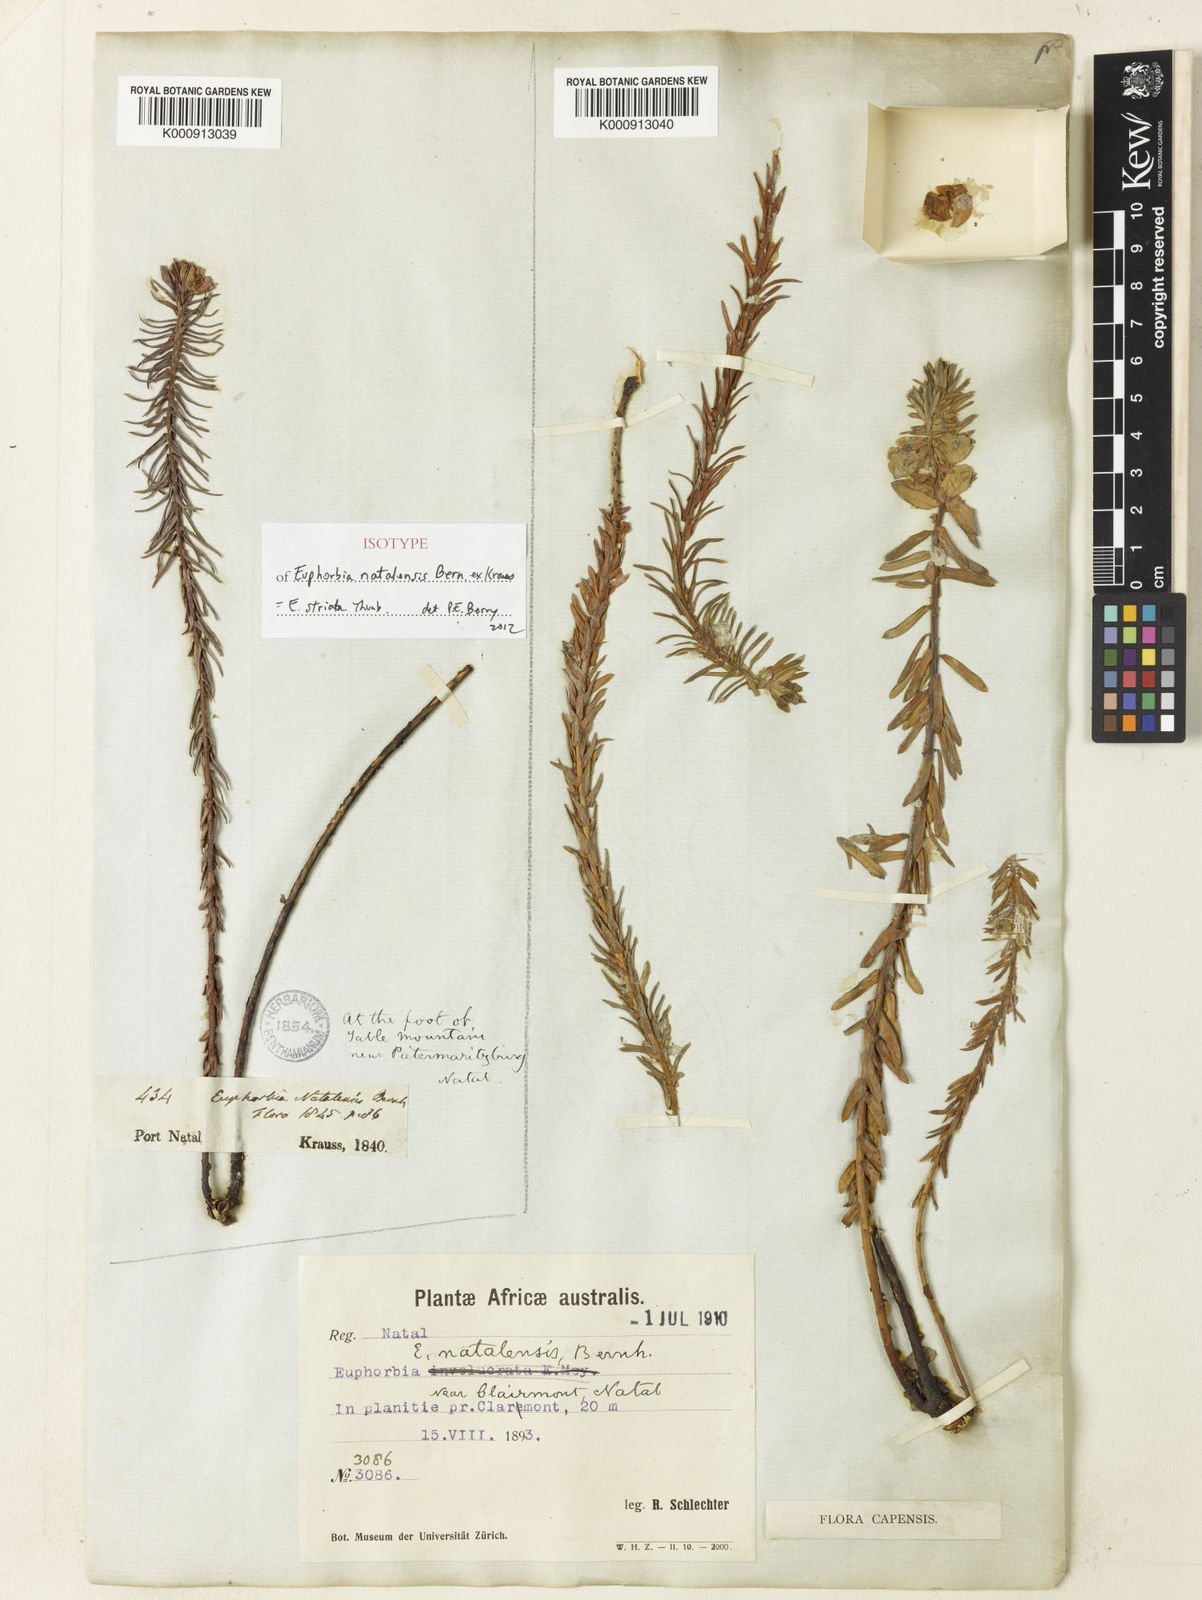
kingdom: Plantae
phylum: Tracheophyta
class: Magnoliopsida
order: Malpighiales
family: Euphorbiaceae
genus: Euphorbia
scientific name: Euphorbia striata
